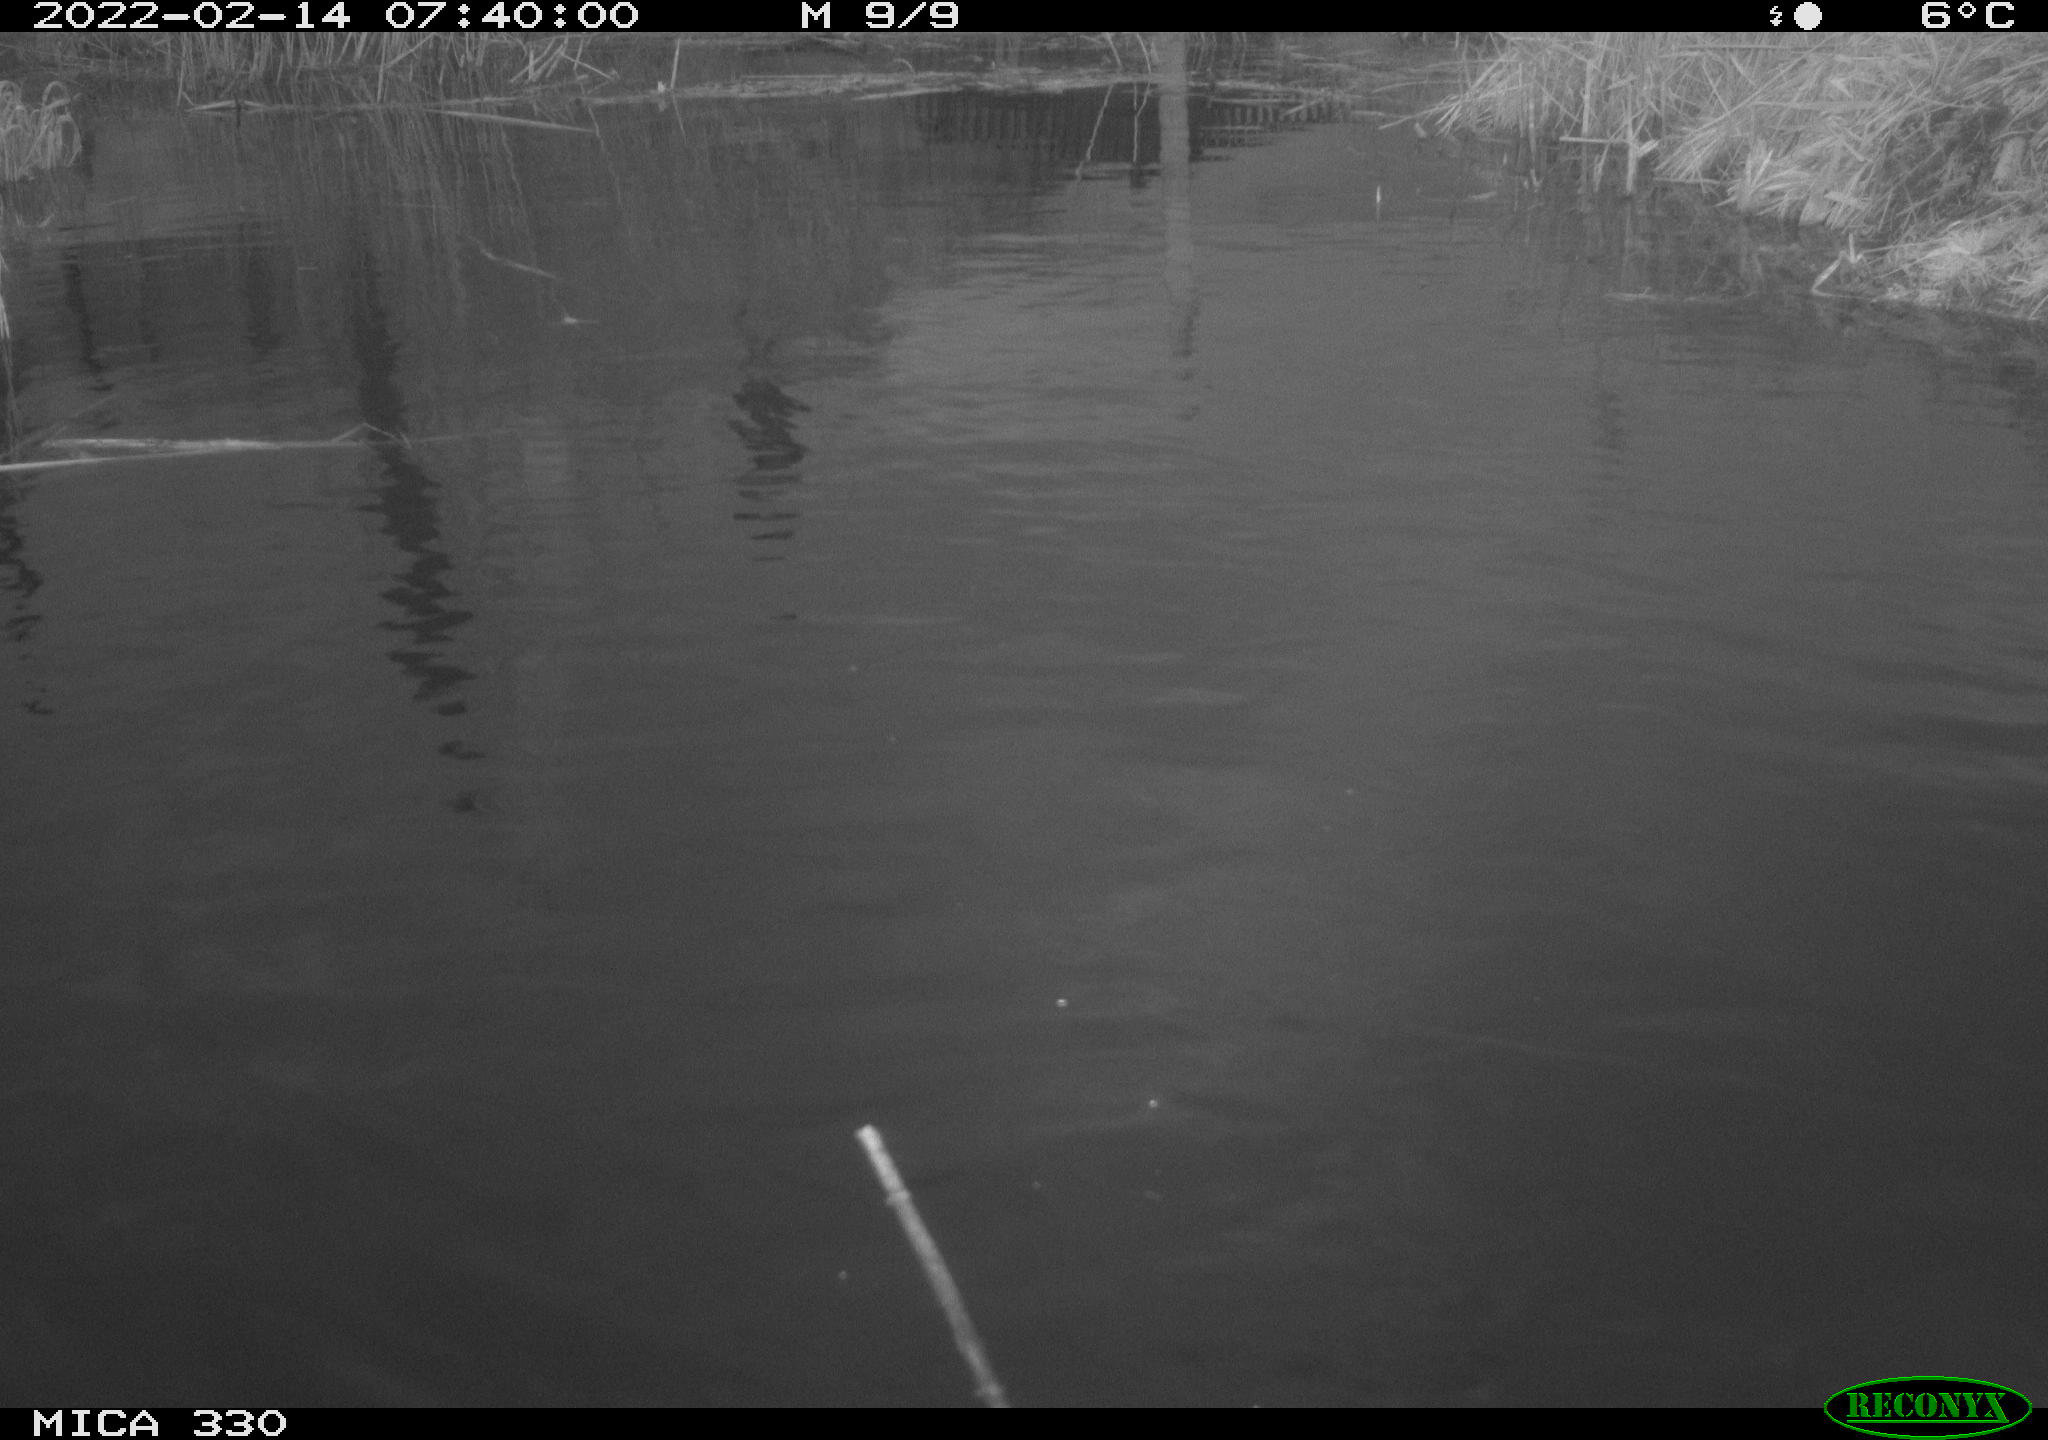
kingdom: Animalia
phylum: Chordata
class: Aves
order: Anseriformes
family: Anatidae
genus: Anas
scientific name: Anas platyrhynchos
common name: Mallard
